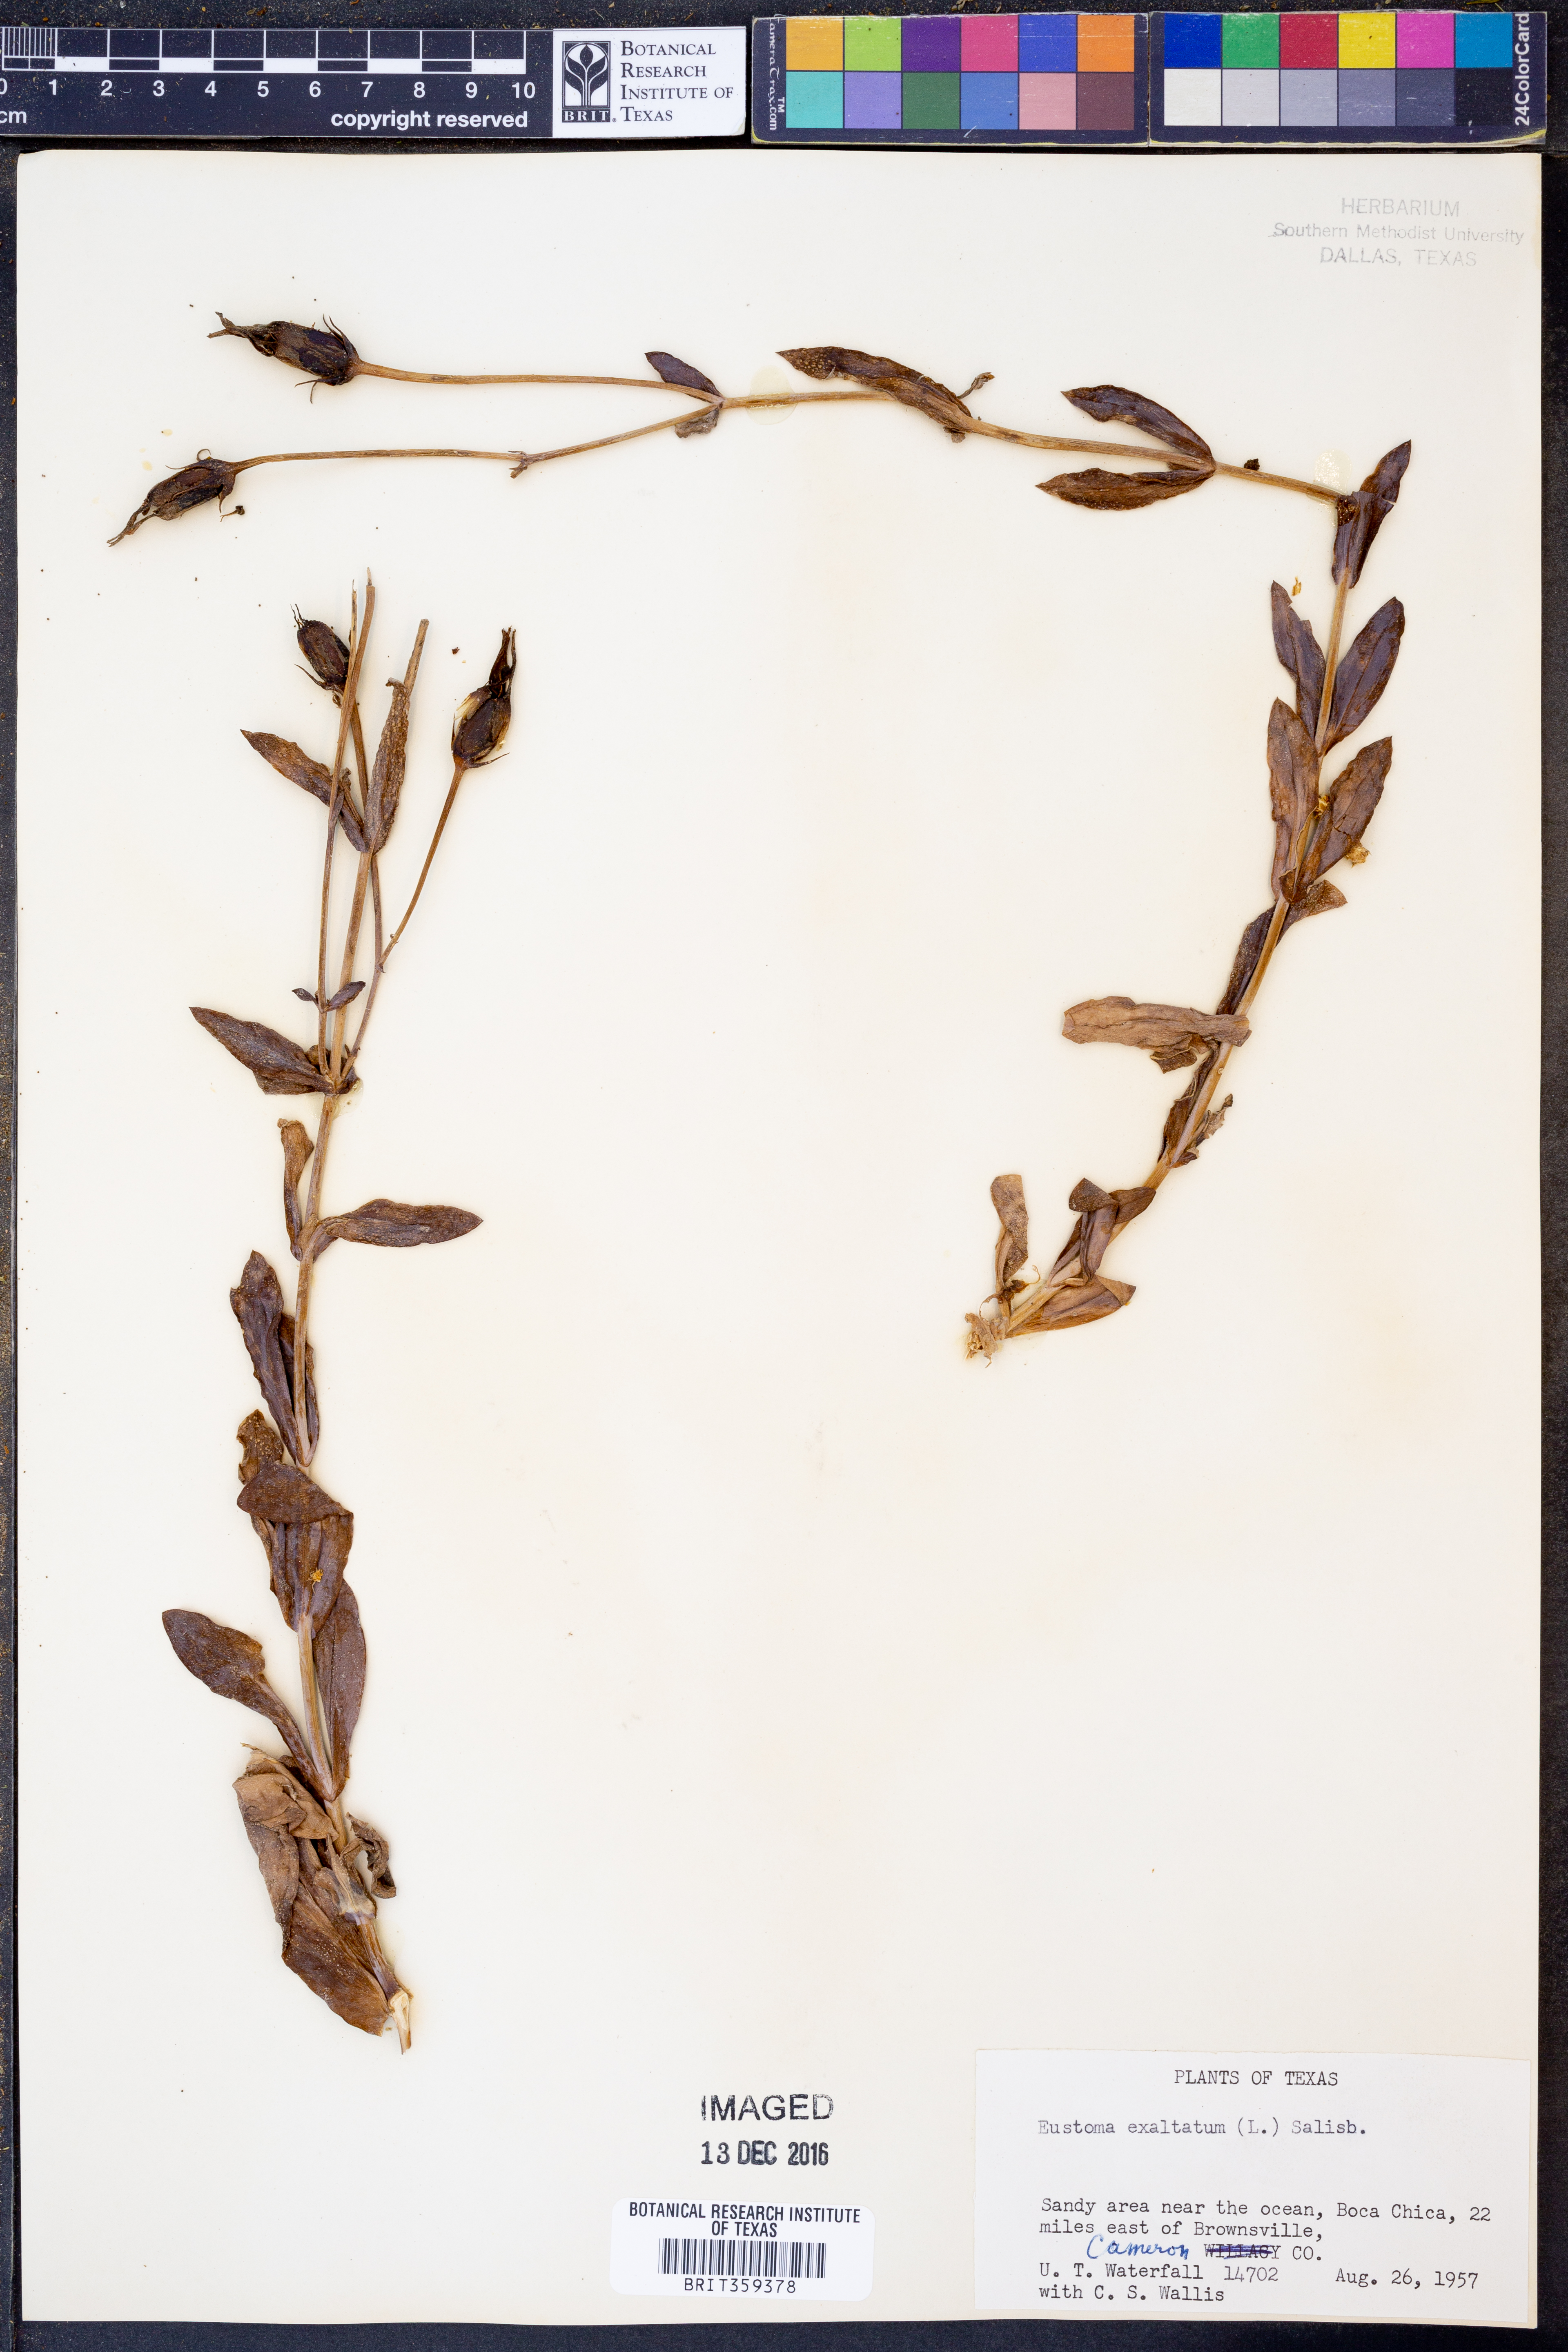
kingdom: Plantae
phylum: Tracheophyta
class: Magnoliopsida
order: Gentianales
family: Gentianaceae
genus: Eustoma
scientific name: Eustoma exaltatum
